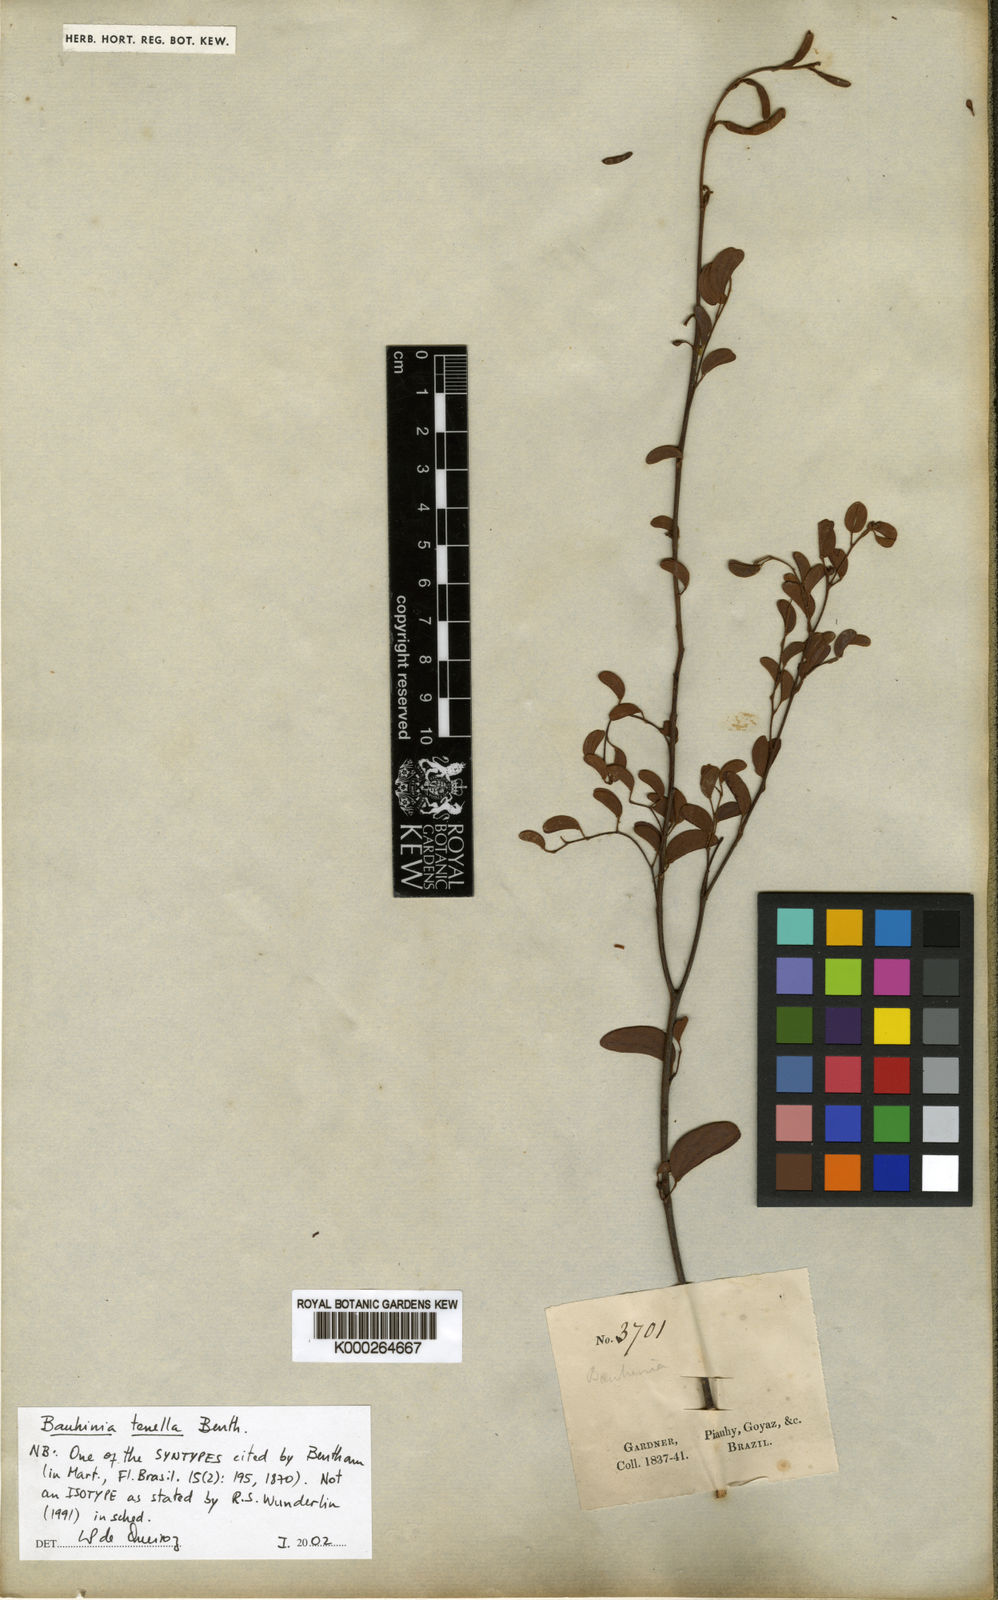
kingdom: Plantae
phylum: Tracheophyta
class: Magnoliopsida
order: Fabales
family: Fabaceae
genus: Bauhinia
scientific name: Bauhinia tenella
